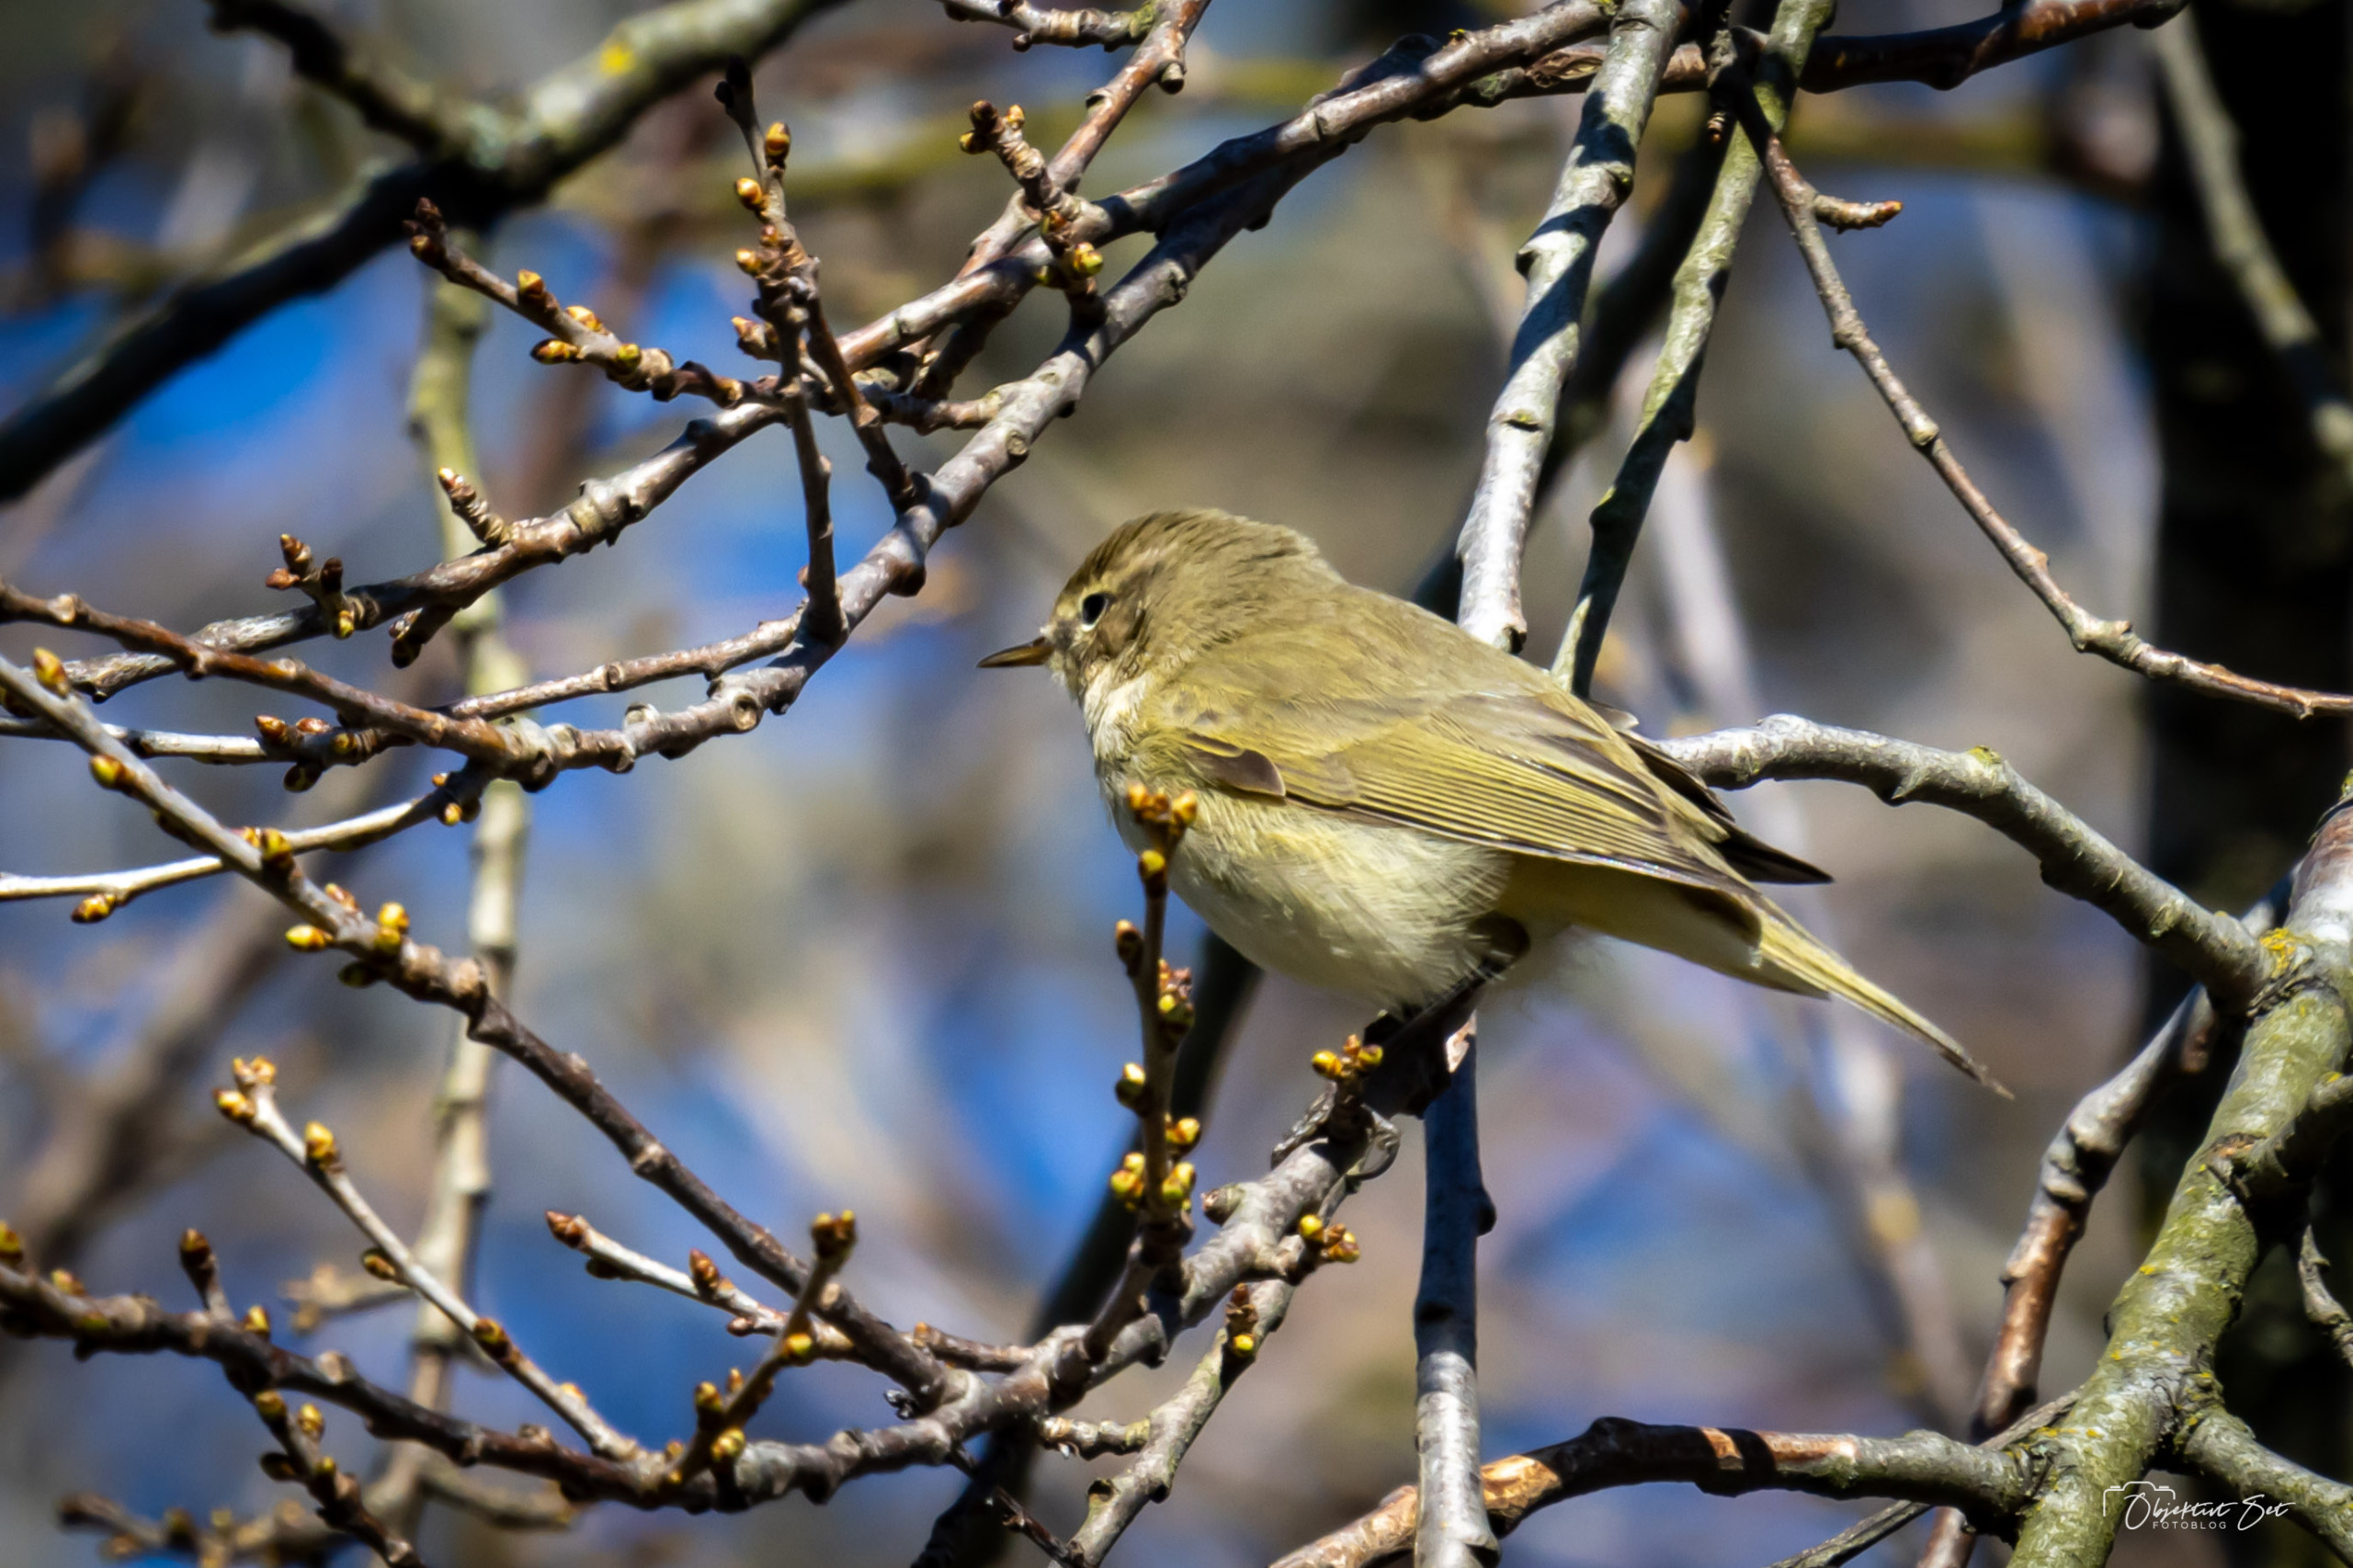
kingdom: Animalia
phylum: Chordata
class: Aves
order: Passeriformes
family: Phylloscopidae
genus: Phylloscopus
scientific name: Phylloscopus collybita
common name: Gransanger
